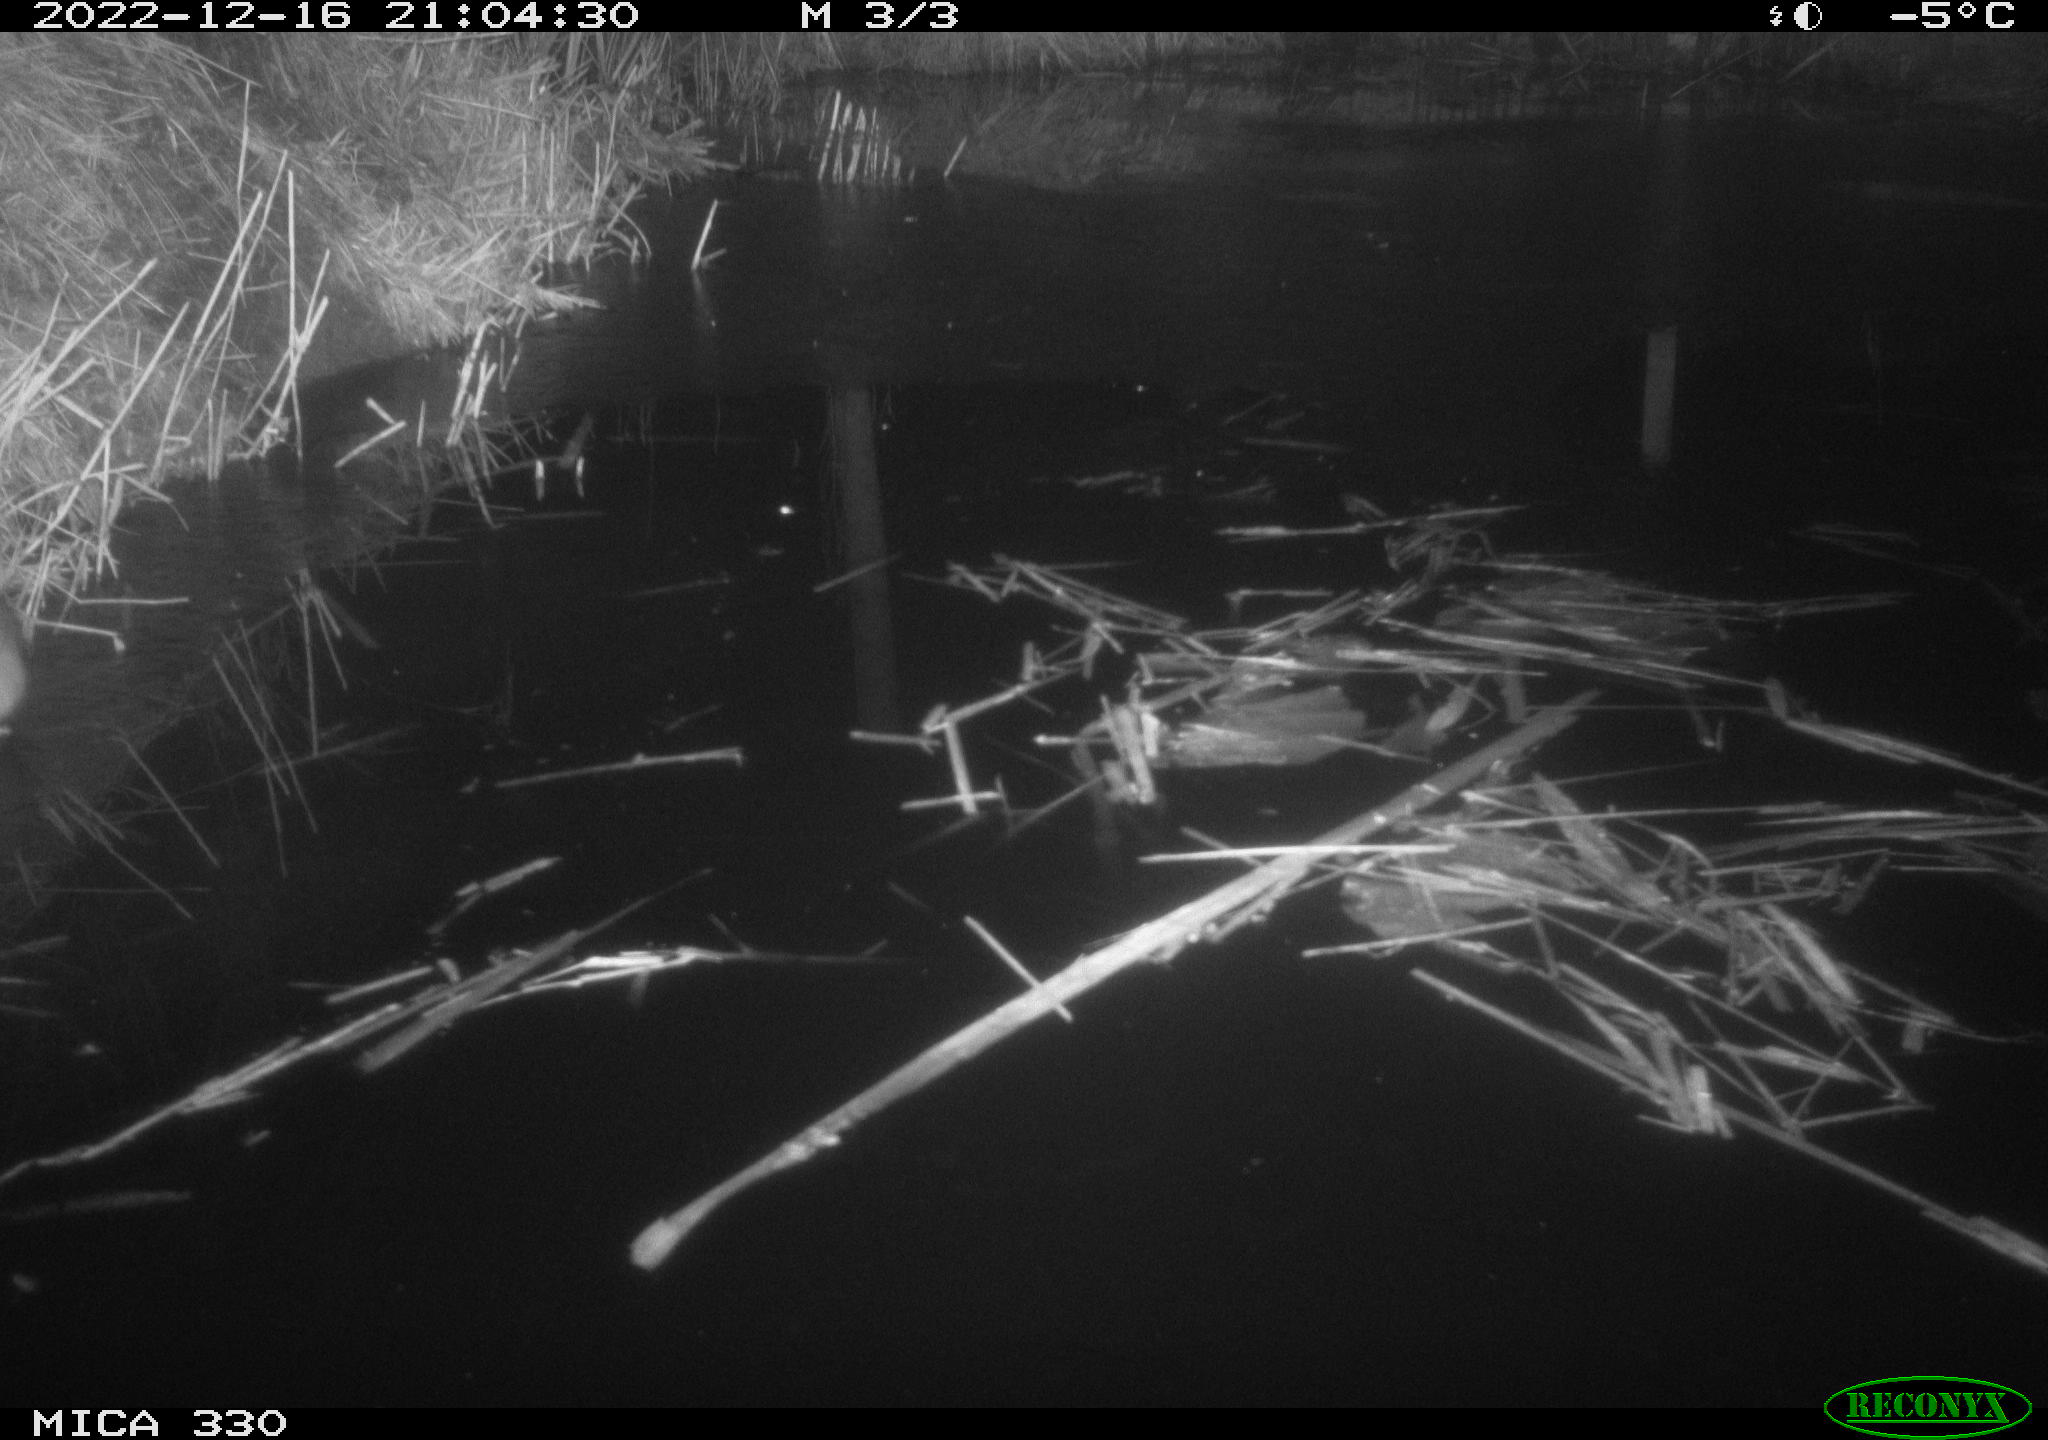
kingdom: Animalia
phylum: Chordata
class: Mammalia
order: Rodentia
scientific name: Rodentia
